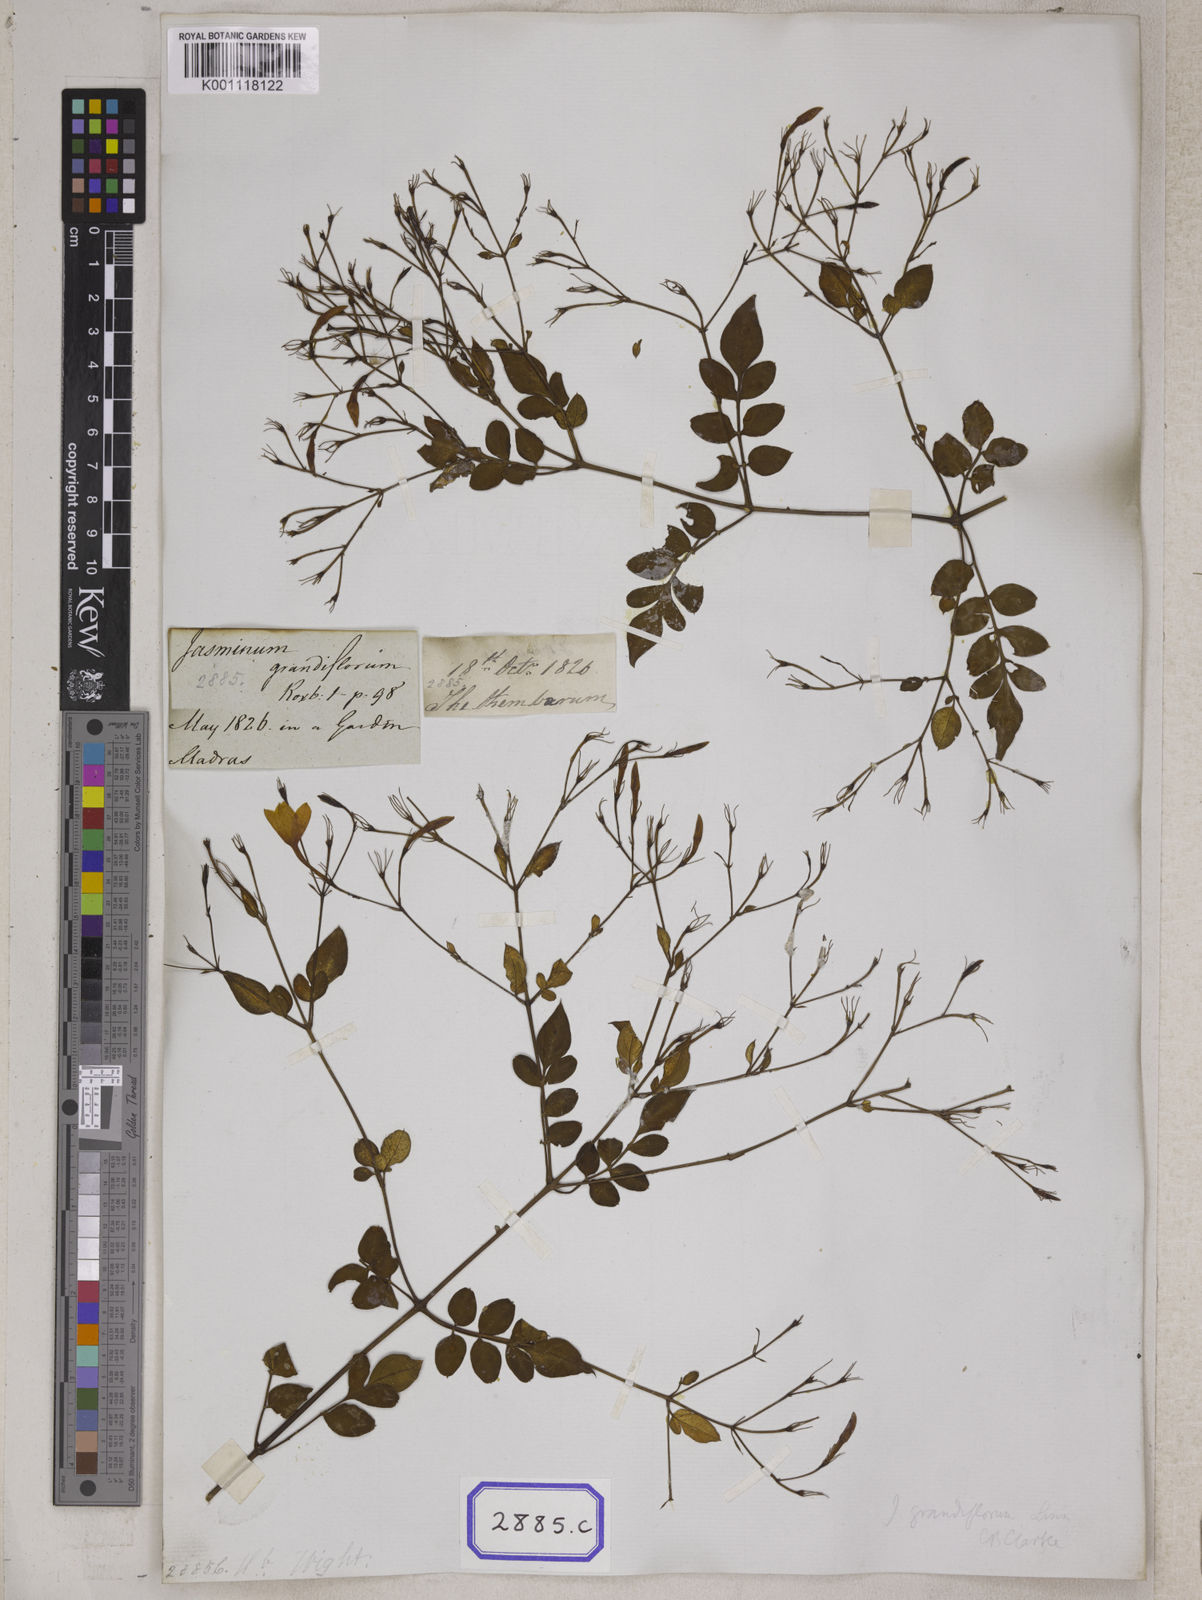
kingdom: Plantae
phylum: Tracheophyta
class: Magnoliopsida
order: Lamiales
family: Oleaceae
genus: Jasminum
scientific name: Jasminum grandiflorum
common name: Catalonian jasmine
